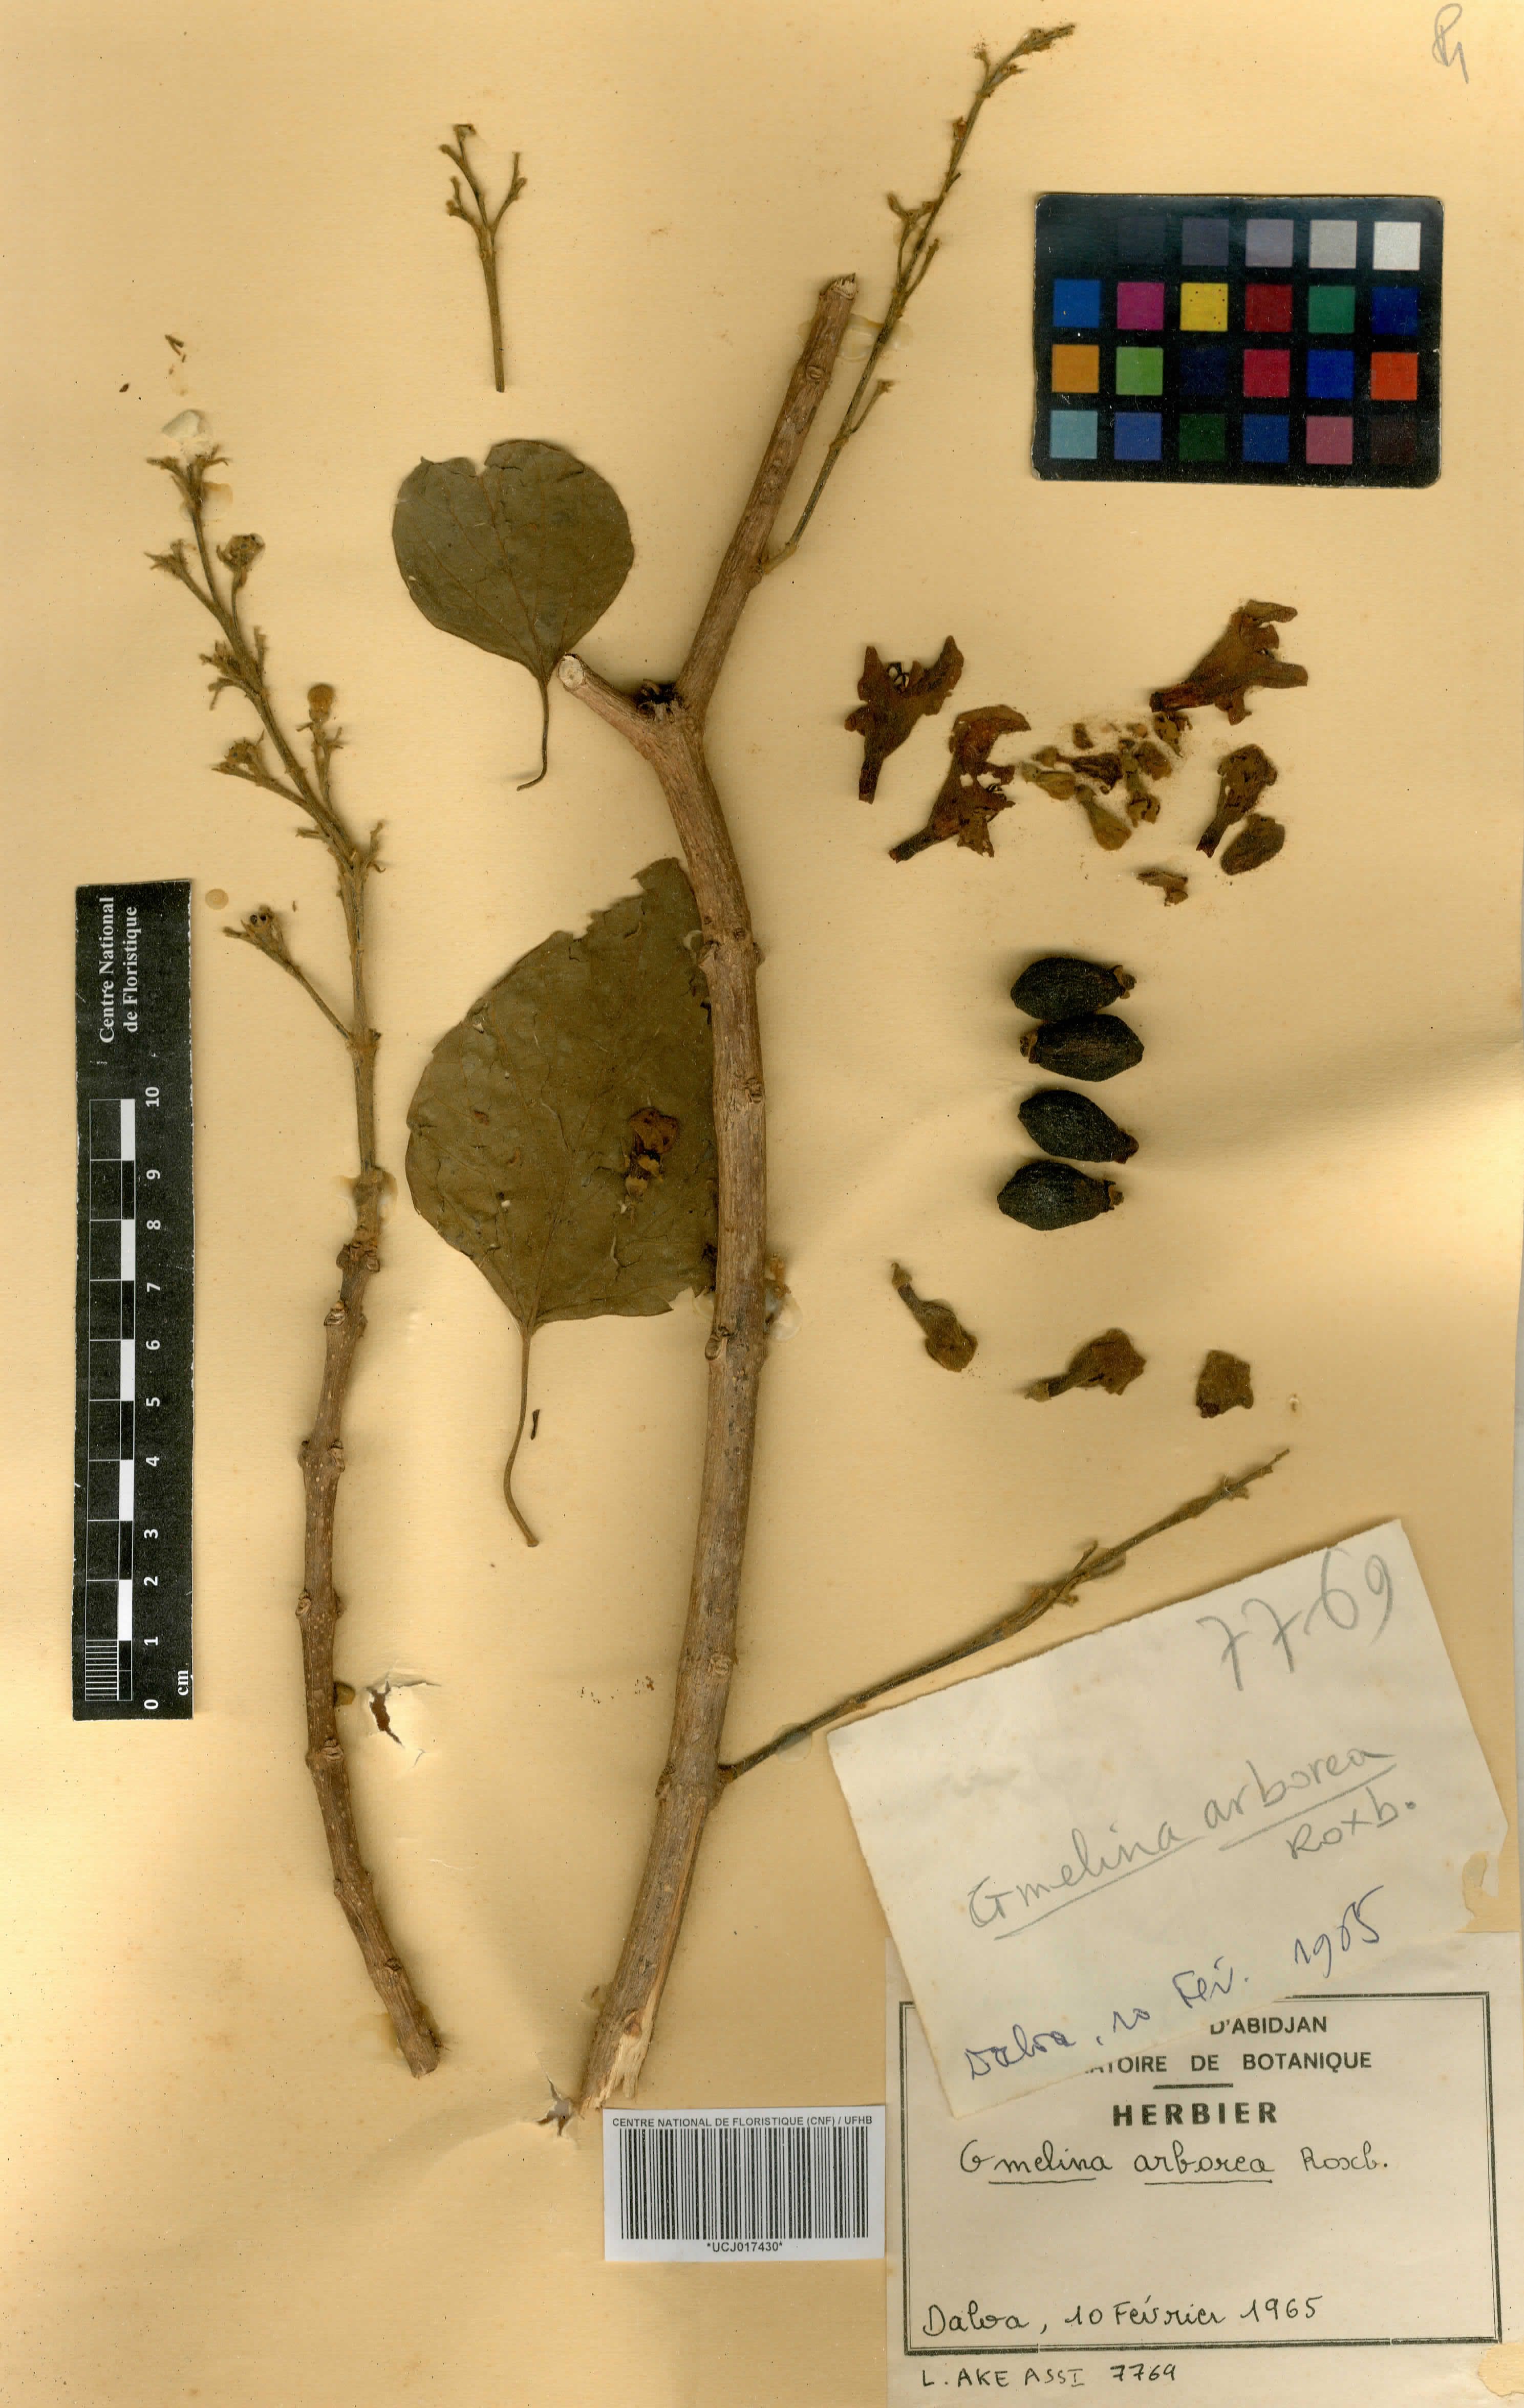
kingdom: Plantae
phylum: Tracheophyta
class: Magnoliopsida
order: Lamiales
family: Lamiaceae
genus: Gmelina
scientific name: Gmelina arborea
